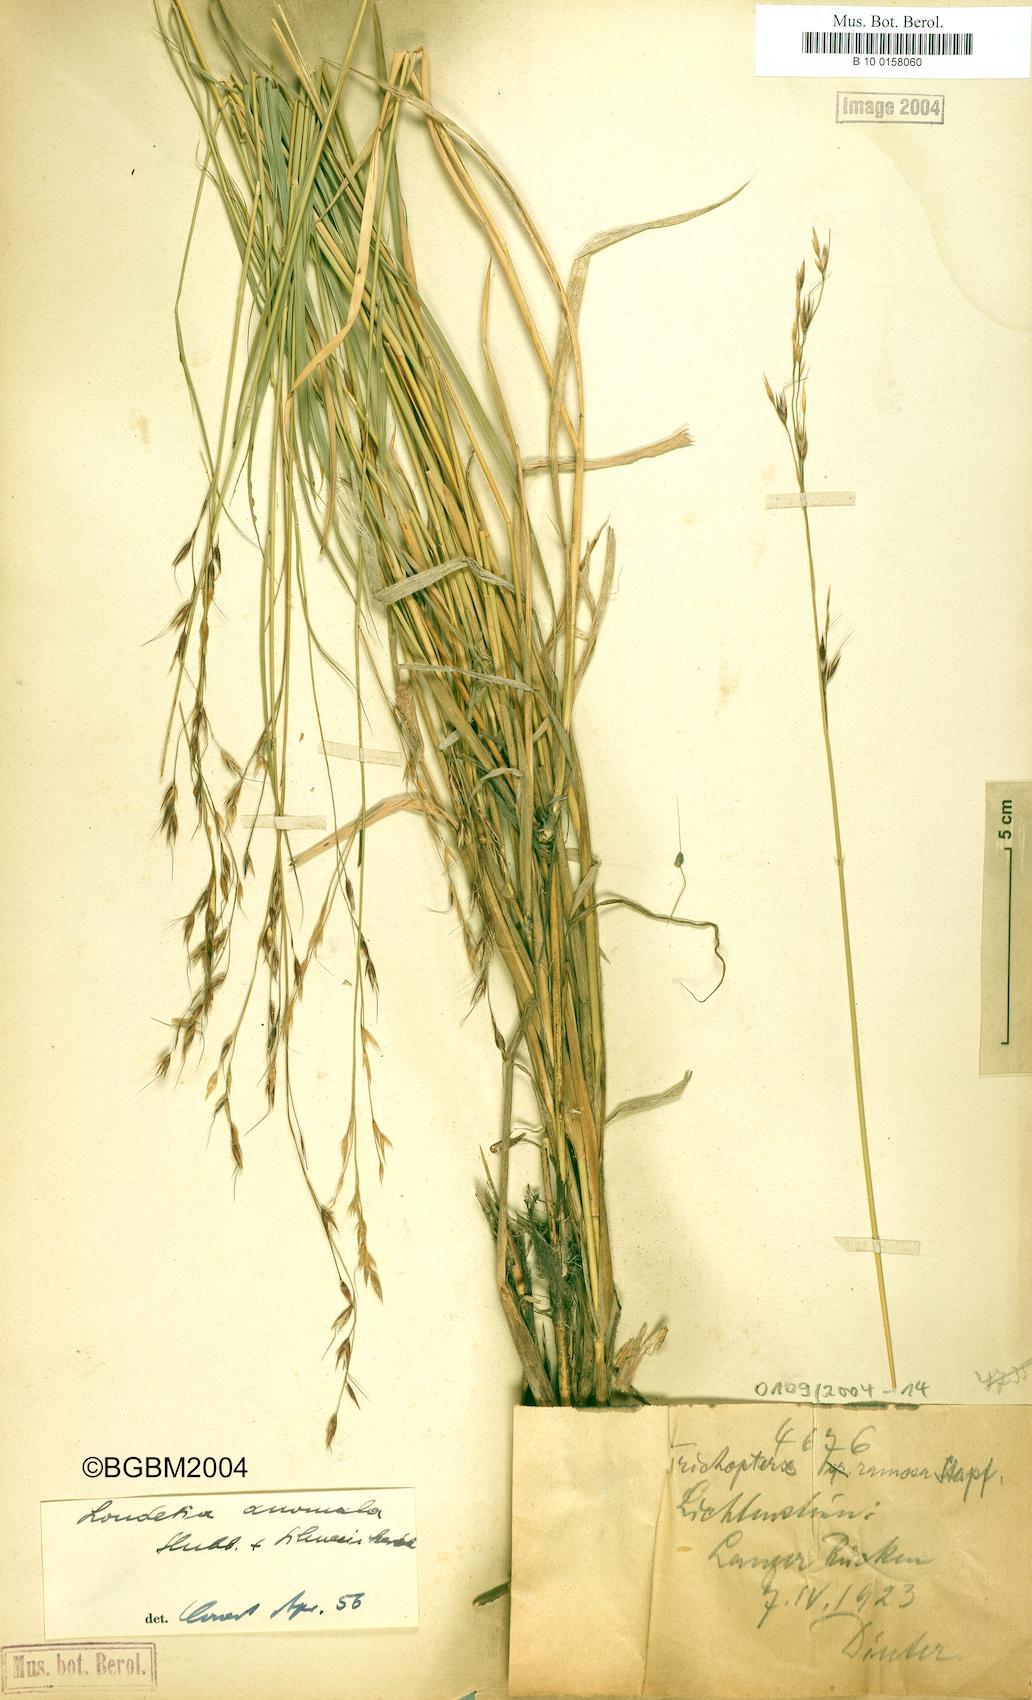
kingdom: Plantae
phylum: Tracheophyta
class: Liliopsida
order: Poales
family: Poaceae
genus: Danthoniopsis
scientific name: Danthoniopsis ramosa
